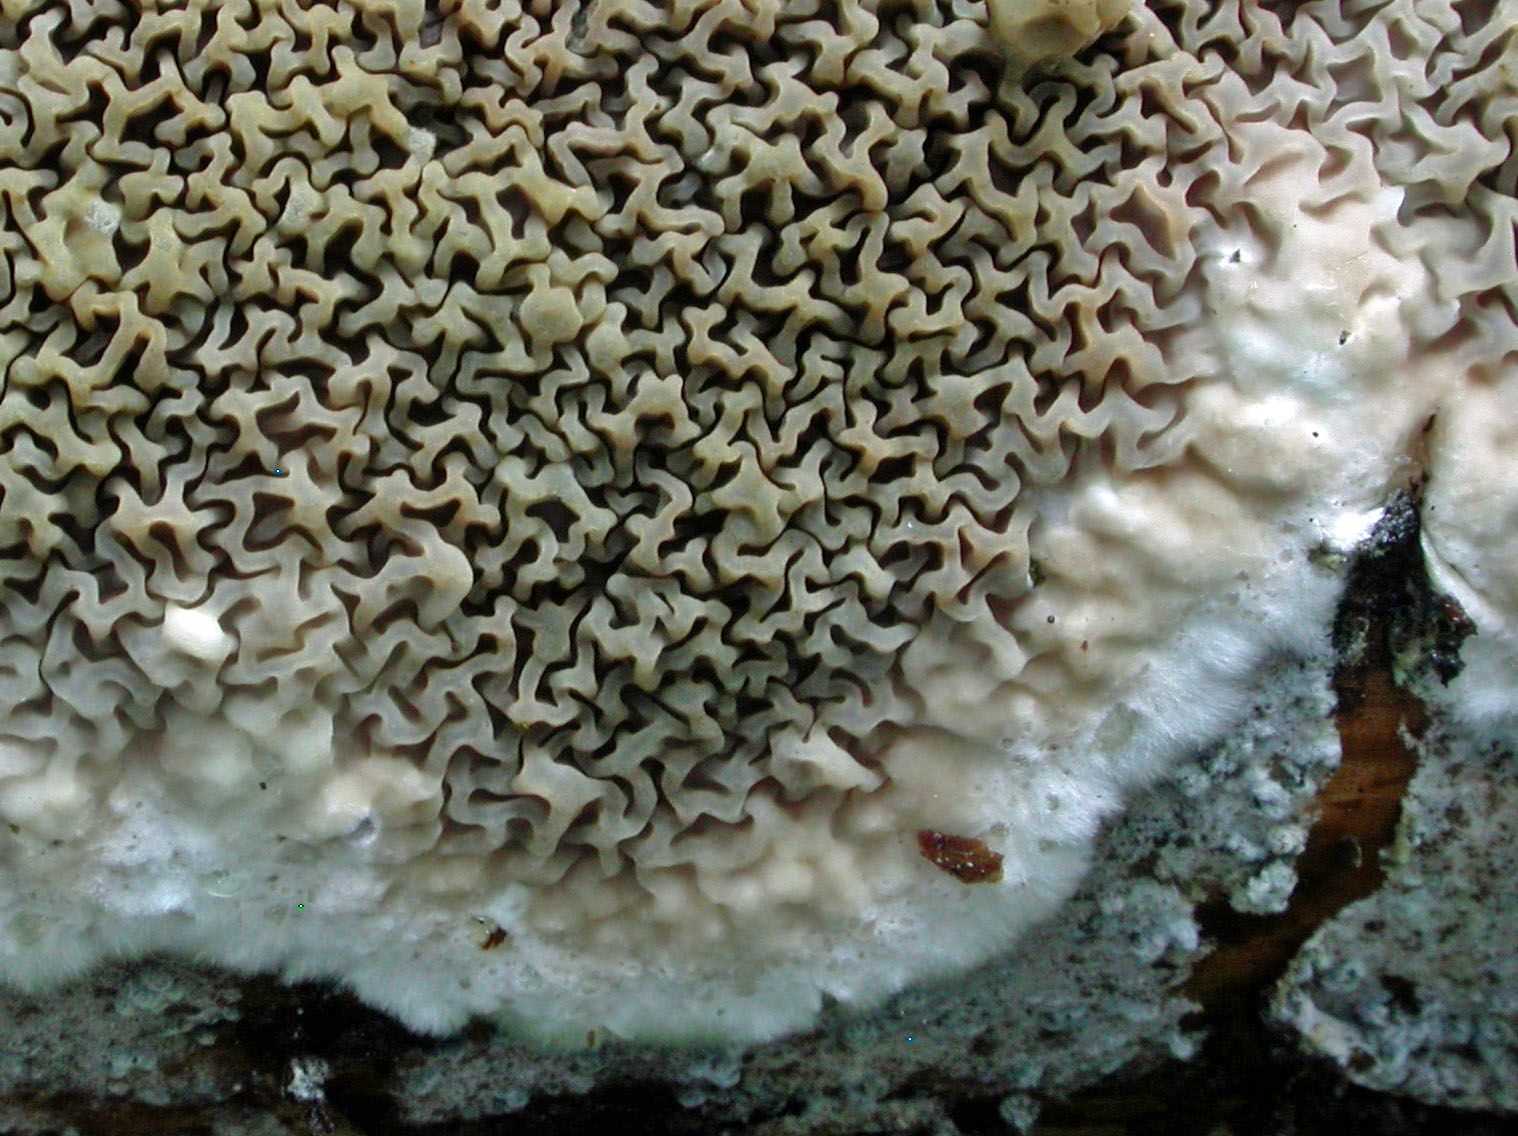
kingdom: Fungi
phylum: Basidiomycota
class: Agaricomycetes
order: Boletales
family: Serpulaceae
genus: Serpula
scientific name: Serpula himantioides
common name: tyndkødet hussvamp
